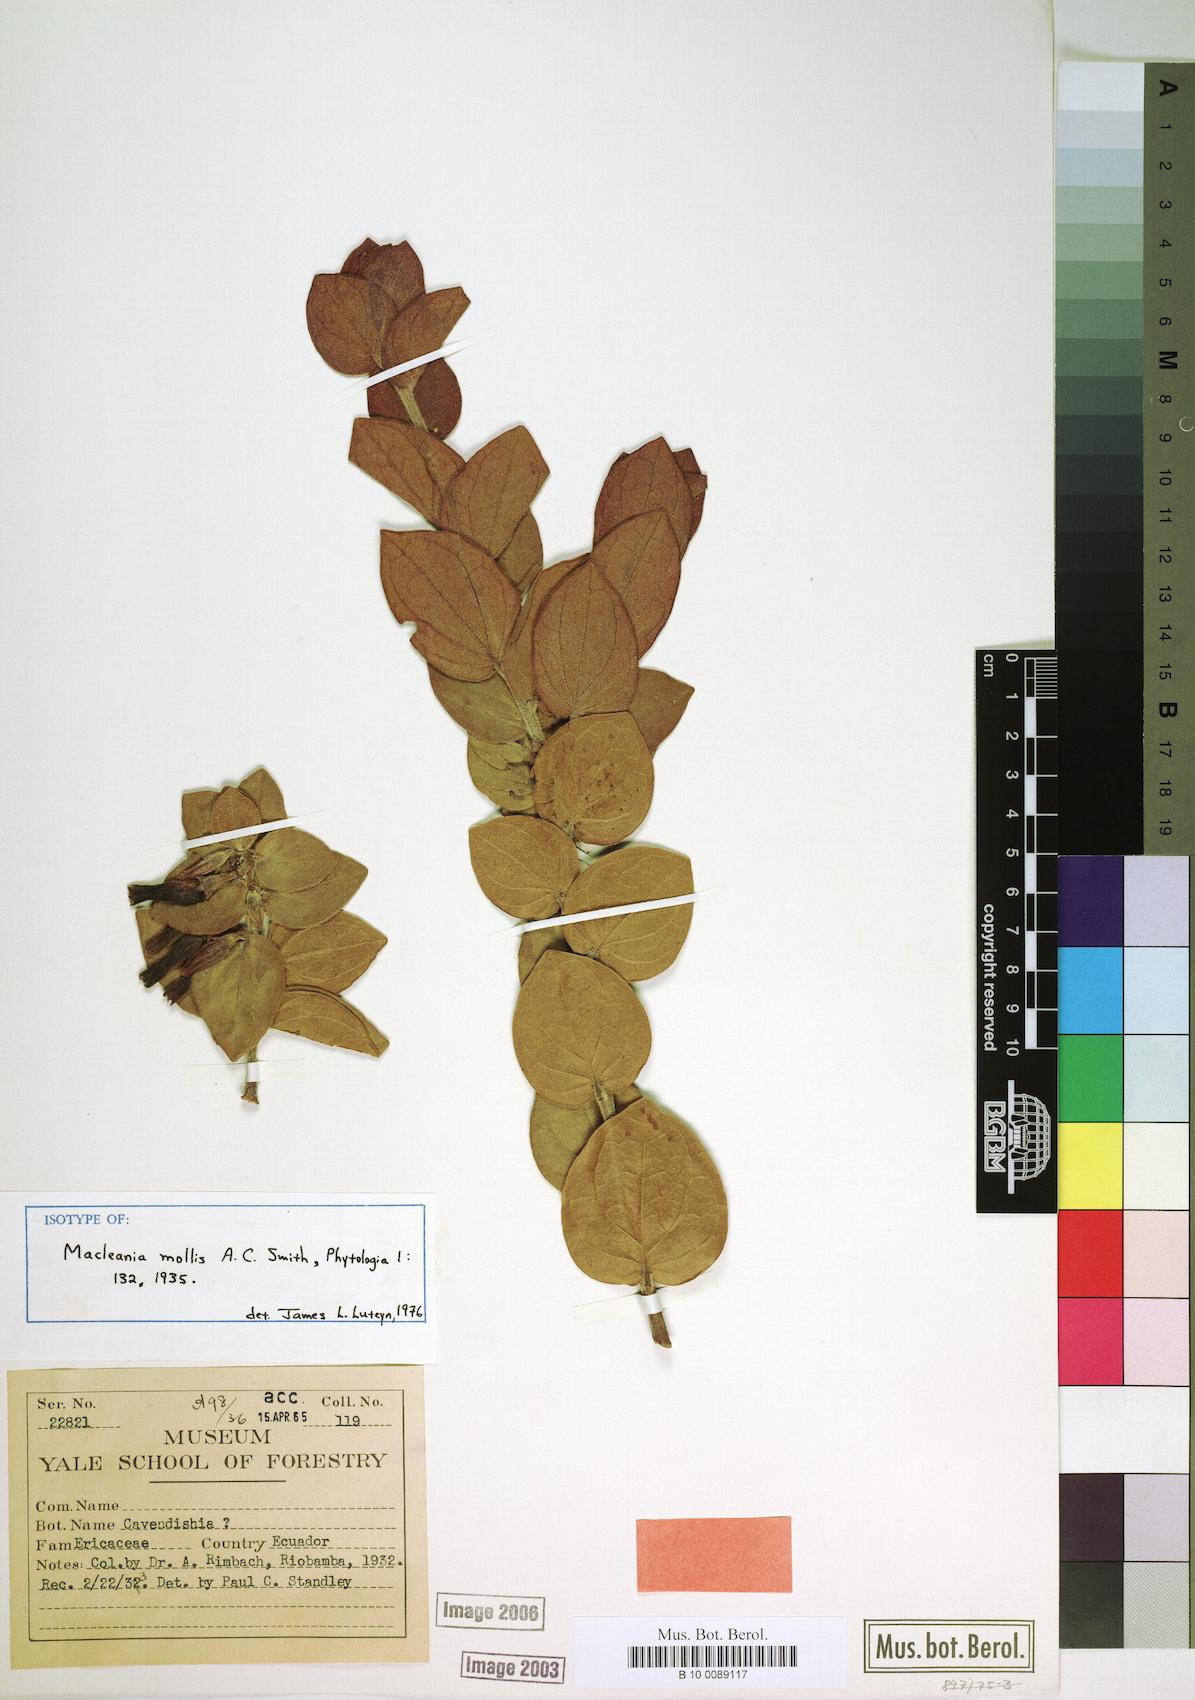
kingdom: Plantae
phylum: Tracheophyta
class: Magnoliopsida
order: Ericales
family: Ericaceae
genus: Macleania
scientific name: Macleania mollis
